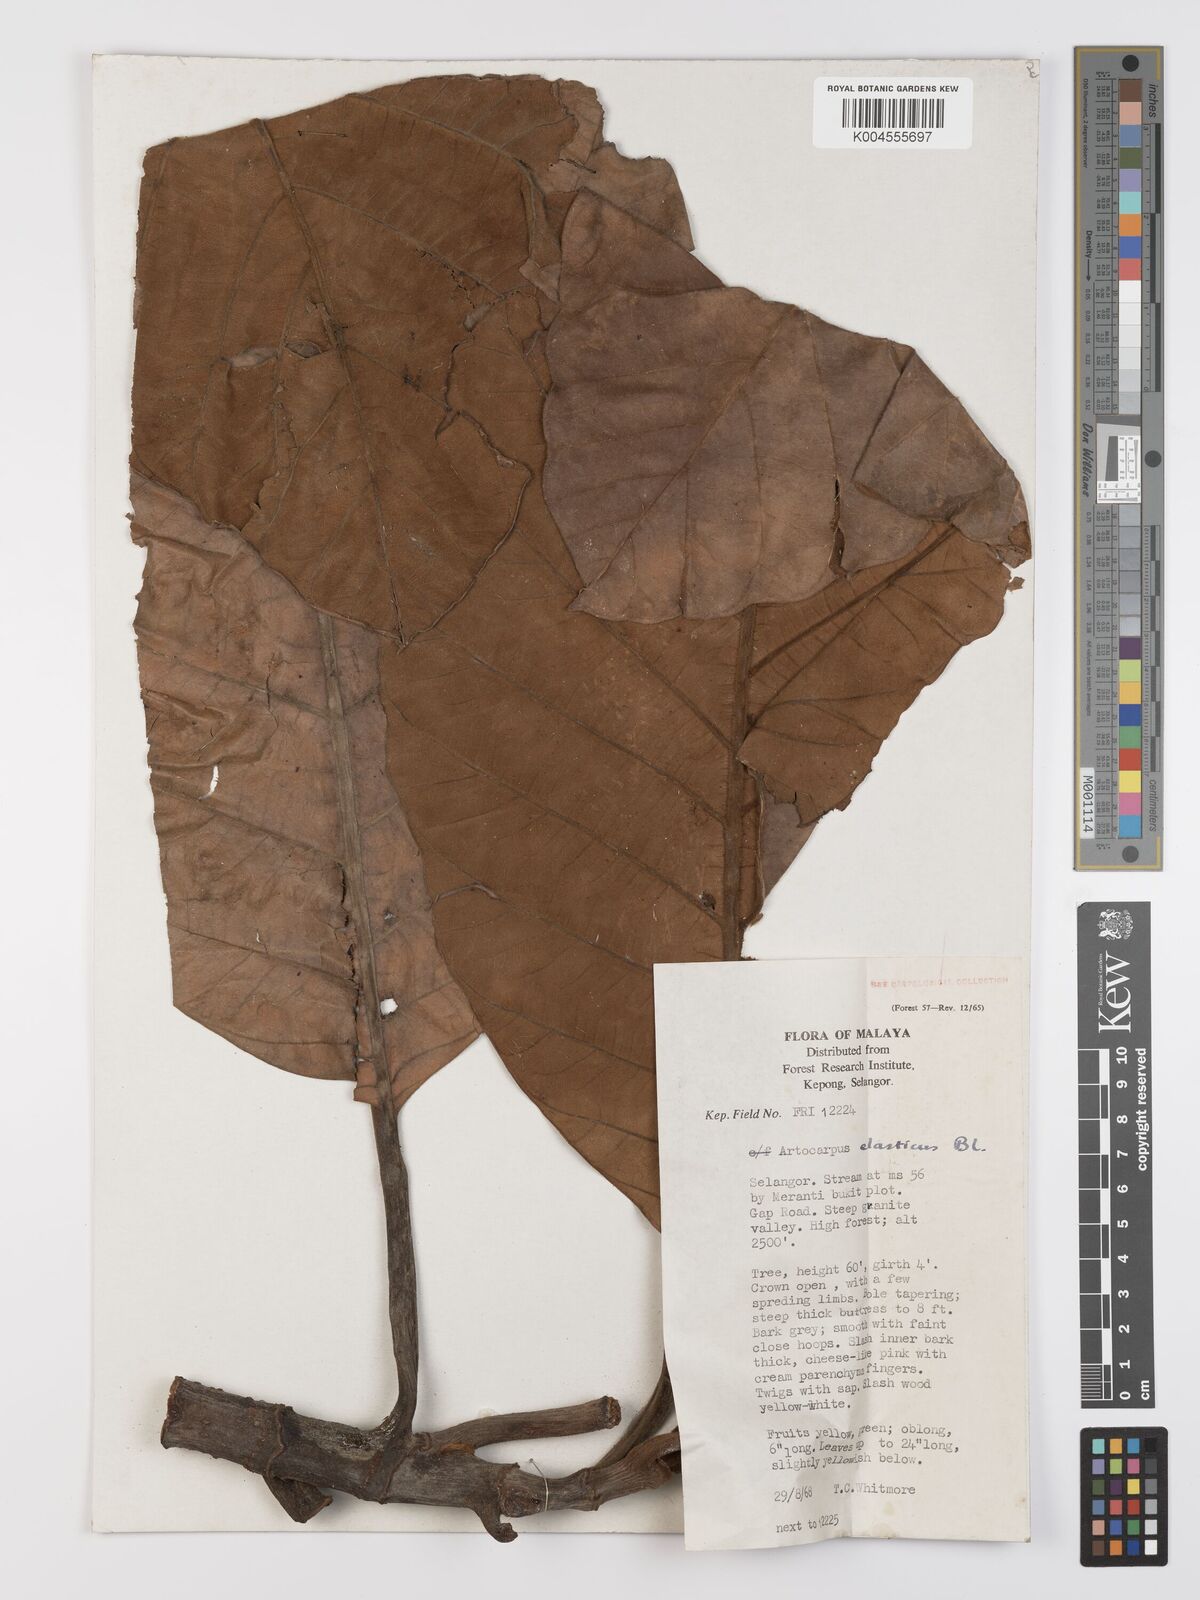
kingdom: Plantae
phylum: Tracheophyta
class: Magnoliopsida
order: Rosales
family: Moraceae
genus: Artocarpus
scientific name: Artocarpus elasticus
